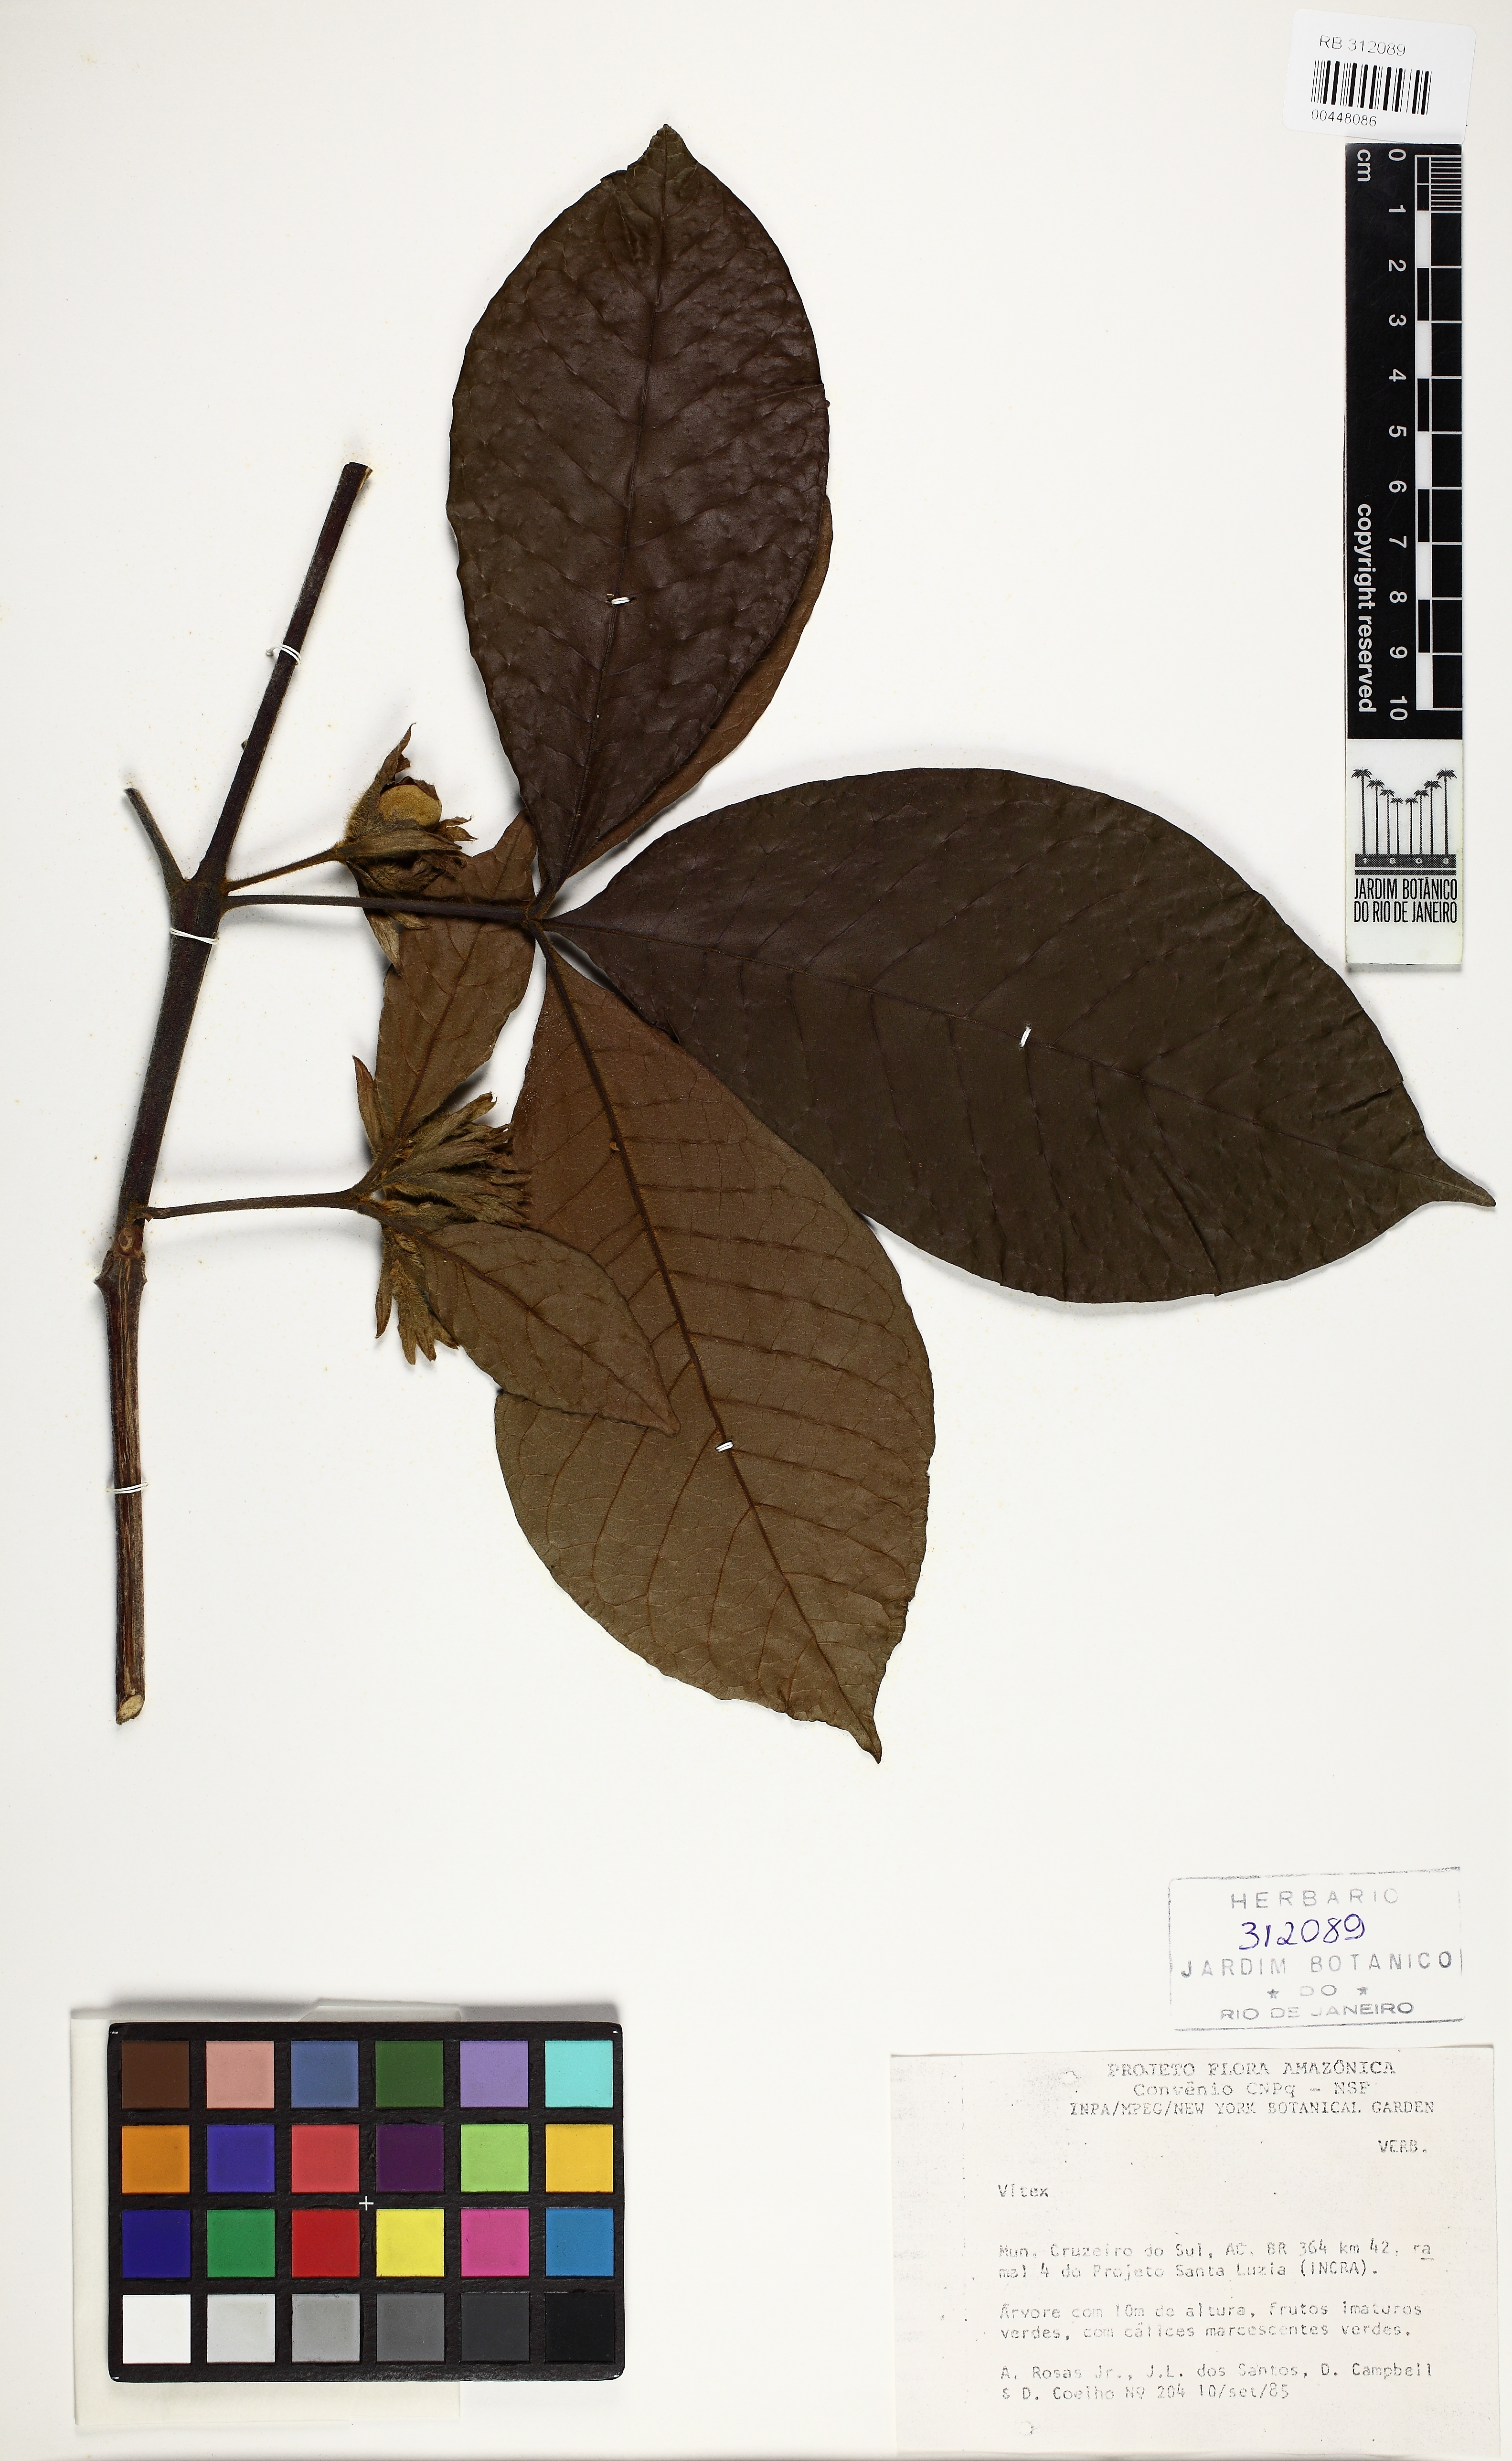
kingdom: Plantae
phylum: Tracheophyta
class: Magnoliopsida
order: Lamiales
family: Lamiaceae
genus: Vitex
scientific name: Vitex
